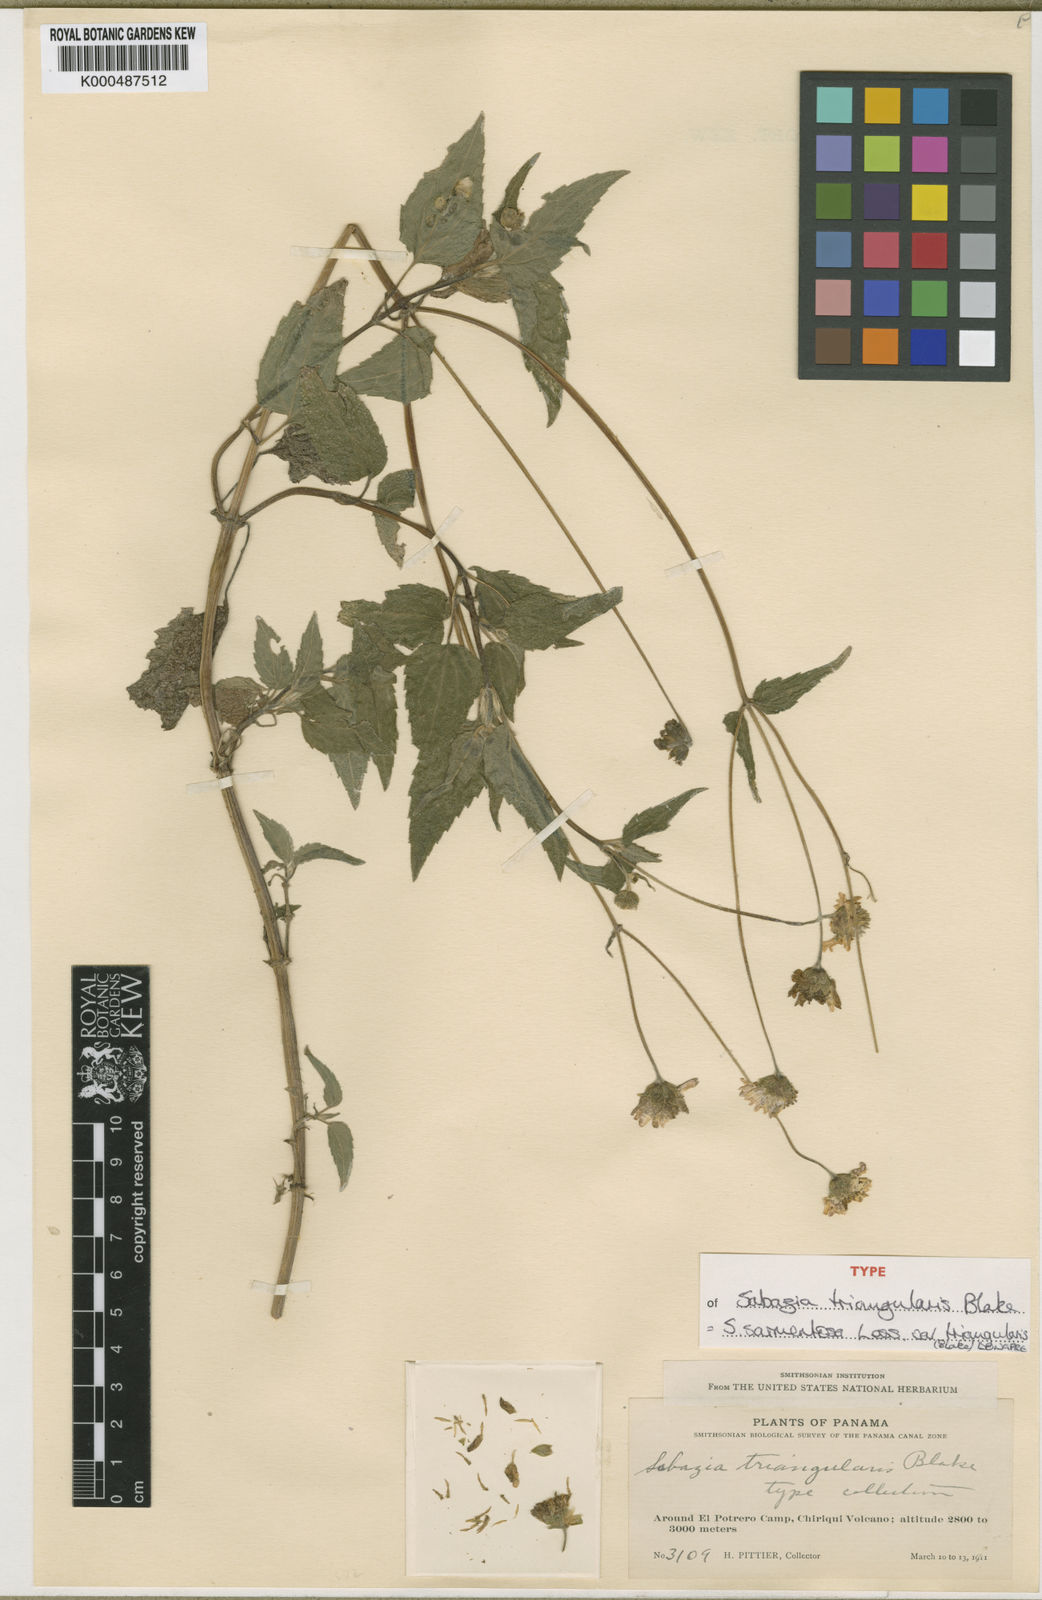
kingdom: Plantae
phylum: Tracheophyta
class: Magnoliopsida
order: Asterales
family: Asteraceae
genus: Sabazia
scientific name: Sabazia sarmentosa
